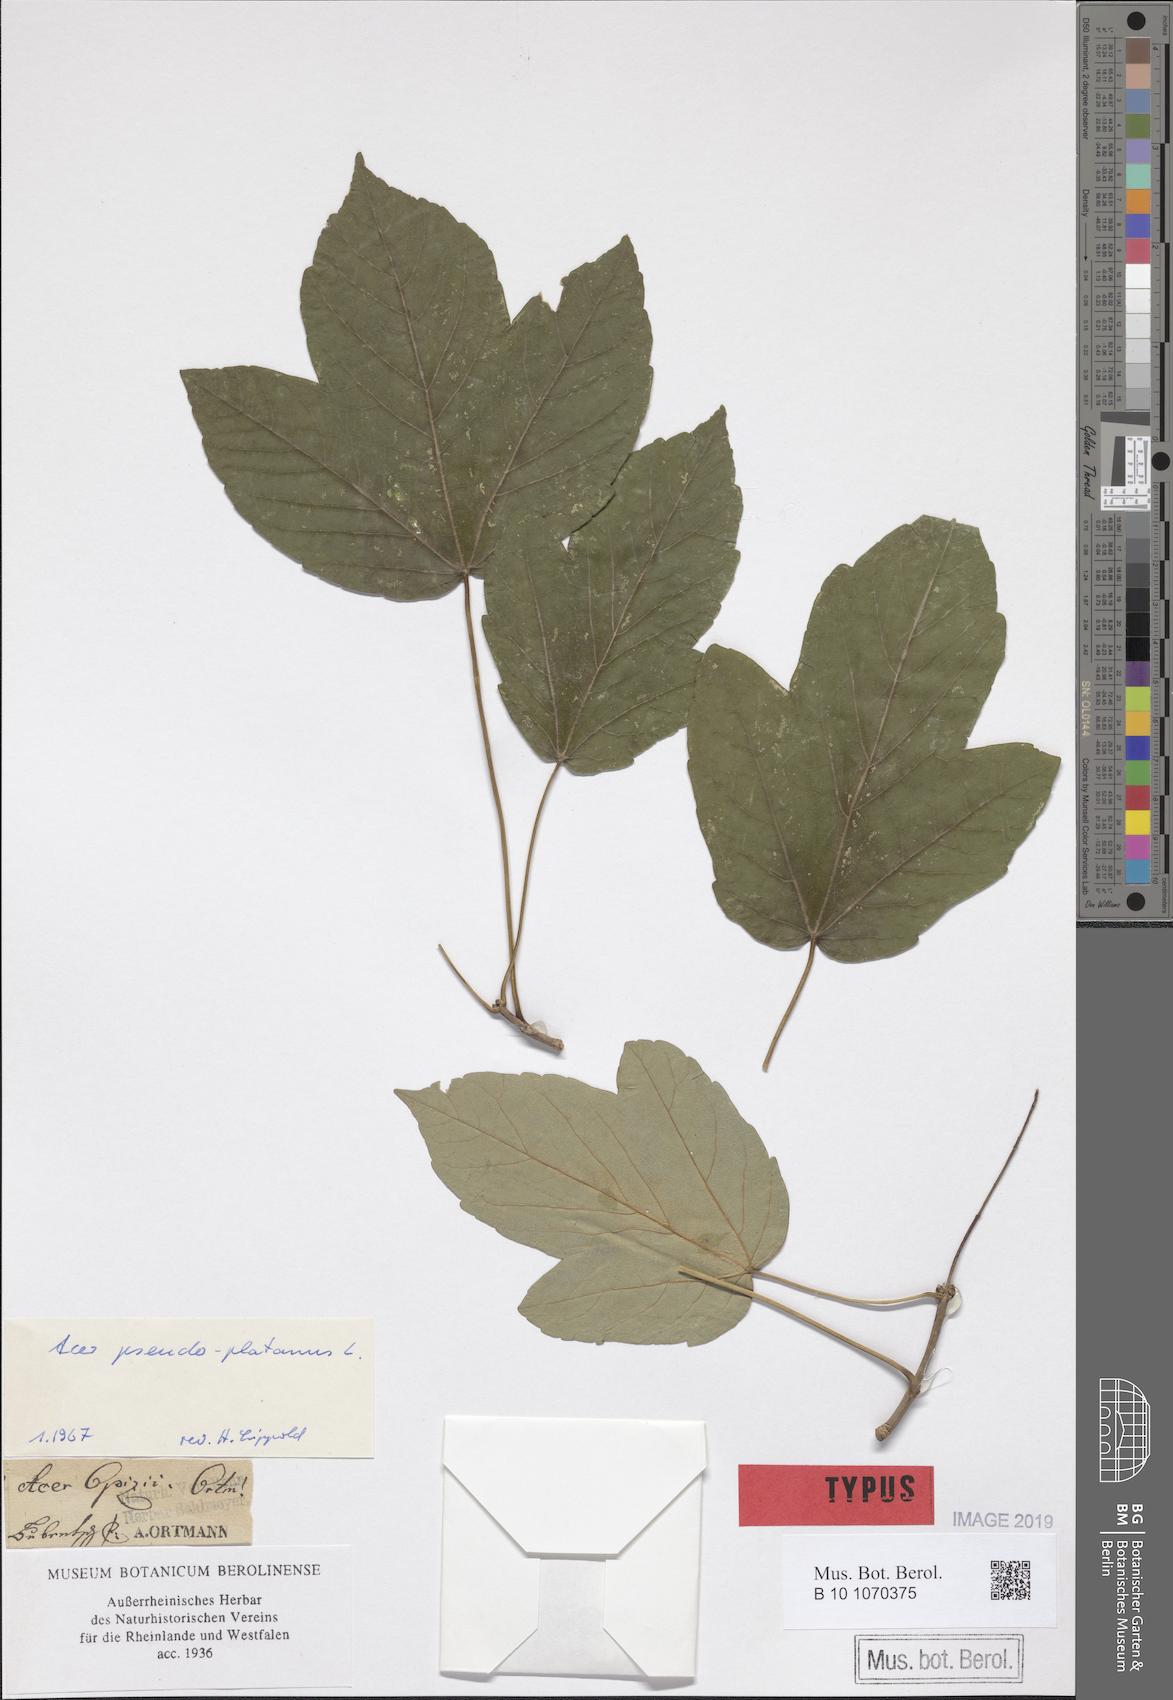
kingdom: Plantae
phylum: Tracheophyta
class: Magnoliopsida
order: Sapindales
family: Sapindaceae
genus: Acer
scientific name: Acer pseudoplatanus
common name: Sycamore
